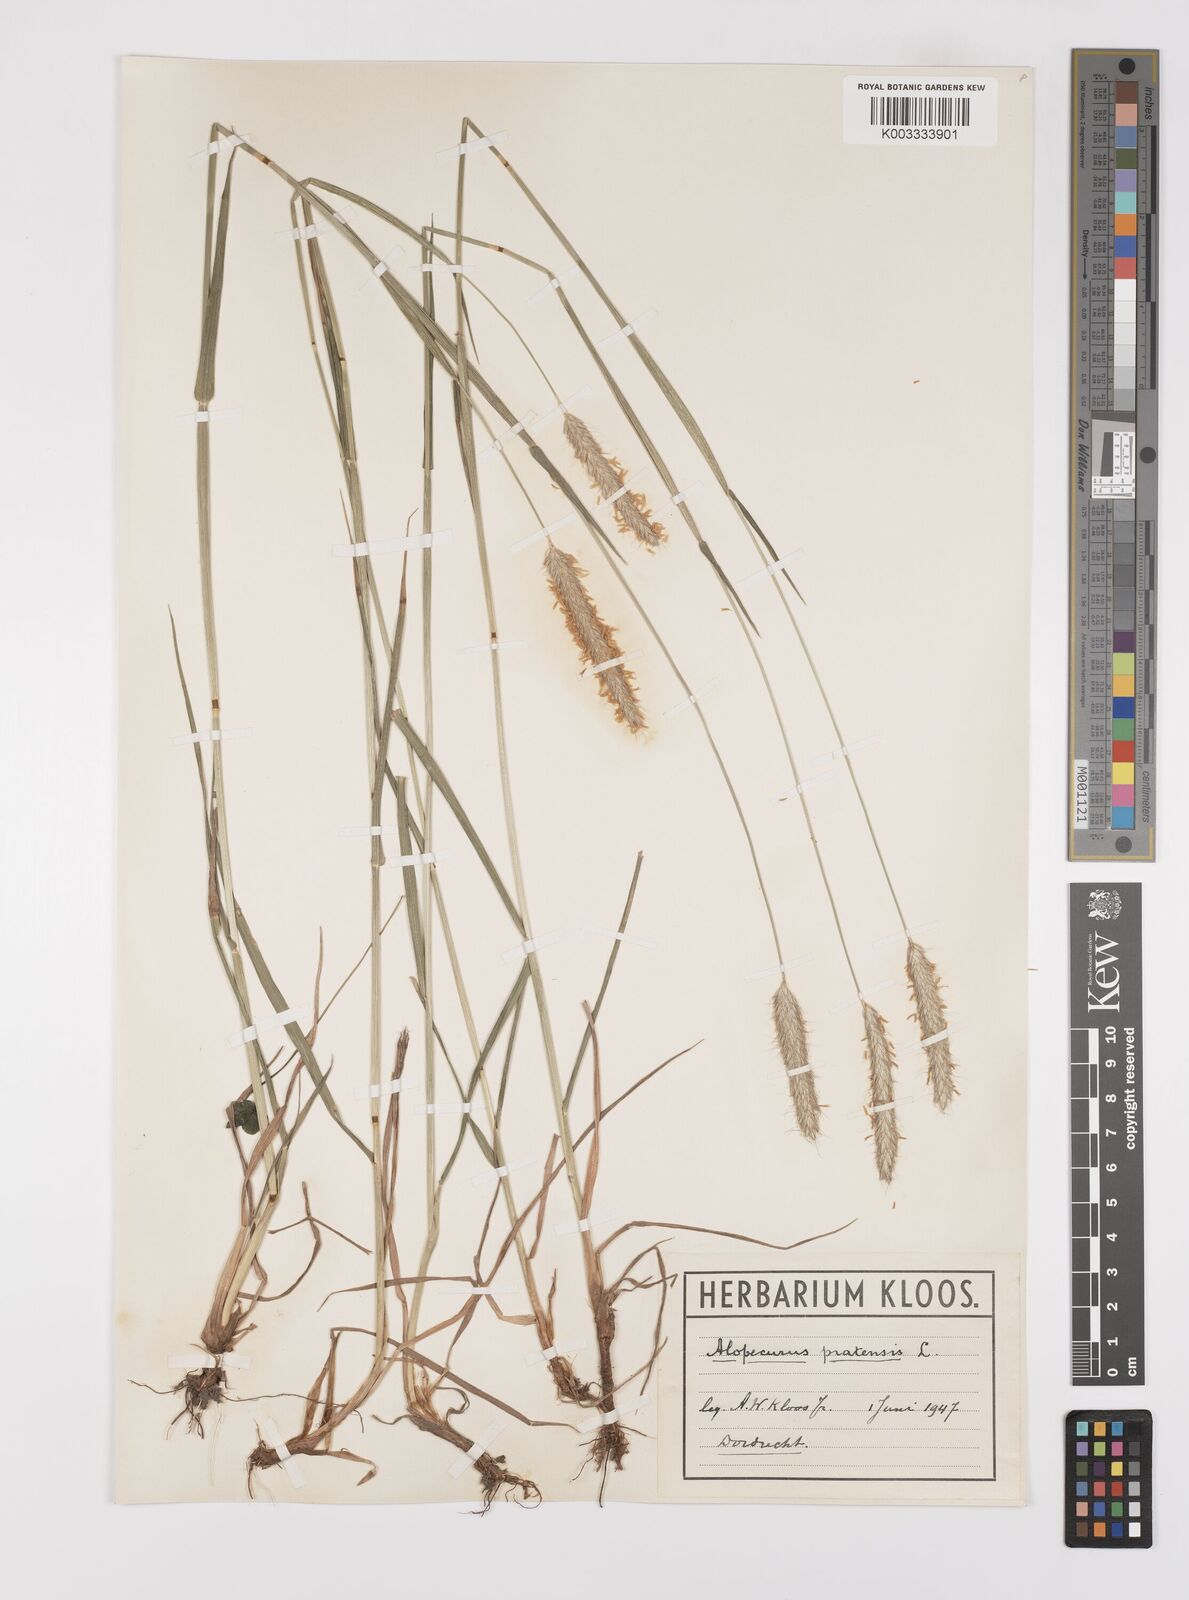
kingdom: Plantae
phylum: Tracheophyta
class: Liliopsida
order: Poales
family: Poaceae
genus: Alopecurus
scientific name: Alopecurus pratensis
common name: Meadow foxtail
